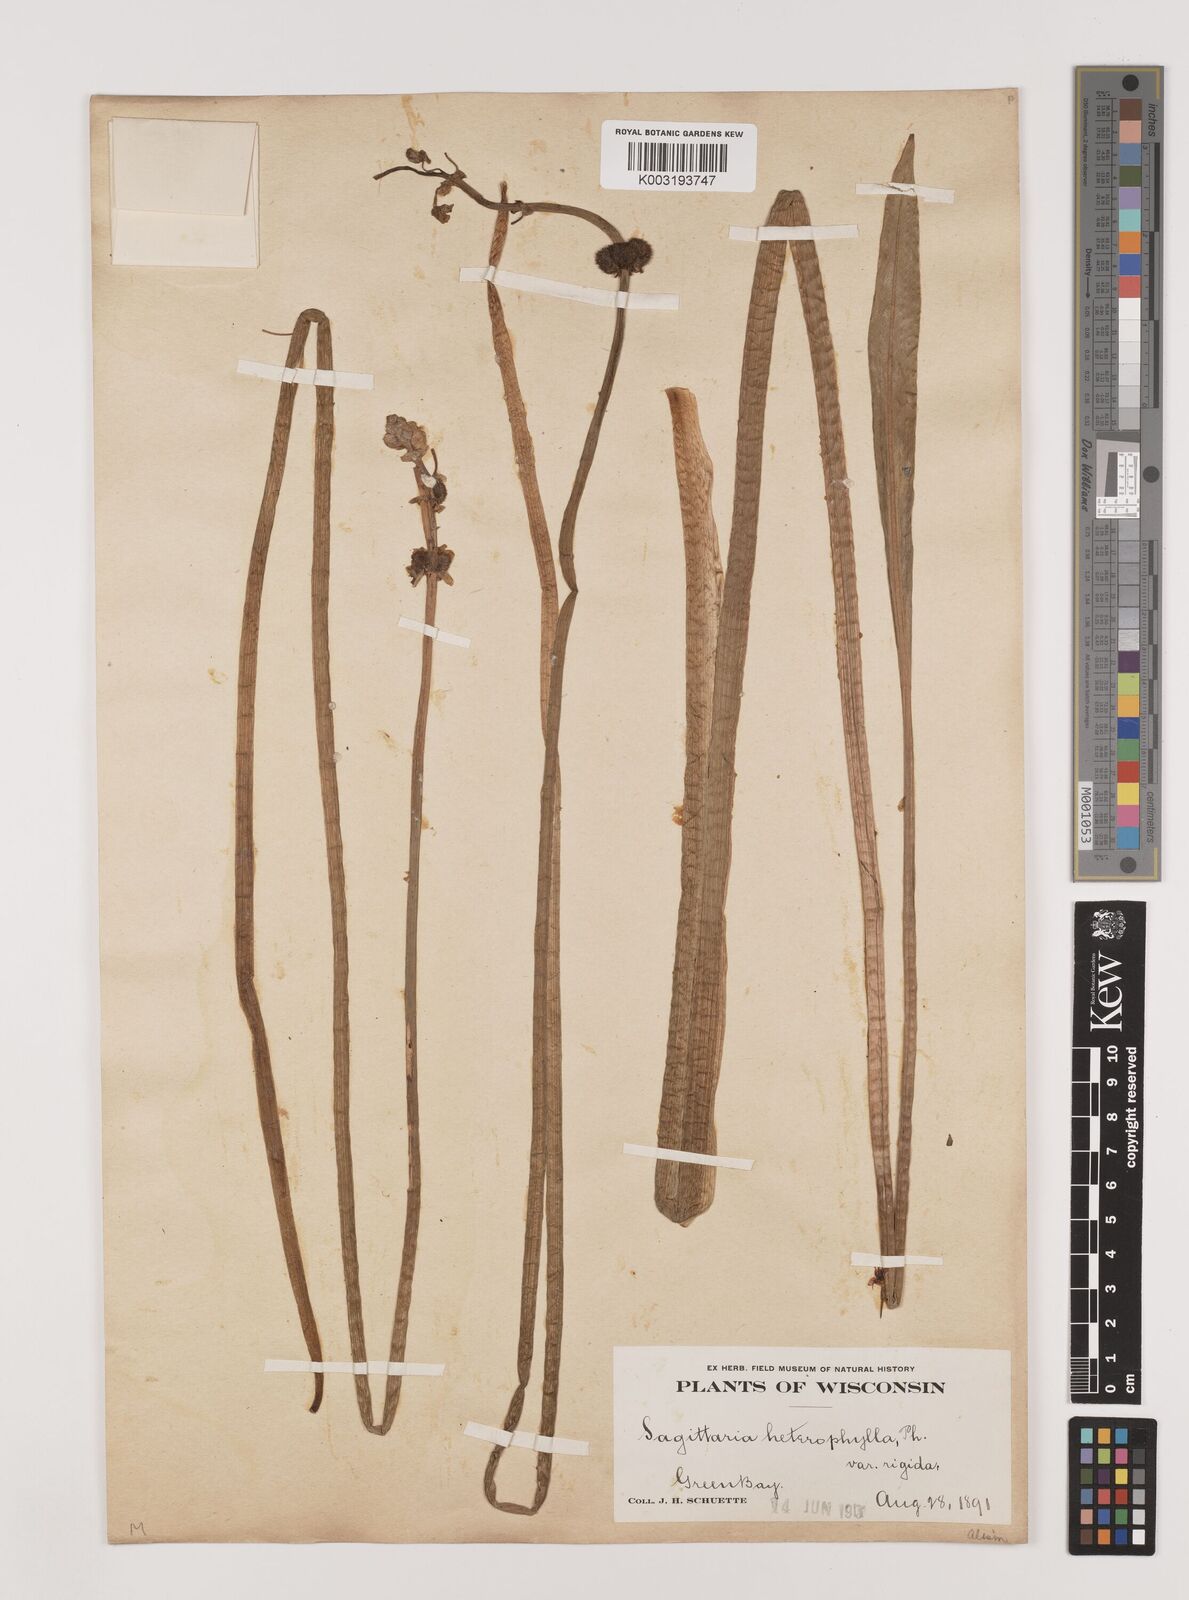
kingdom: Plantae
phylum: Tracheophyta
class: Liliopsida
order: Alismatales
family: Alismataceae
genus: Sagittaria
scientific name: Sagittaria rigida
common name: Canadian arrowhead
